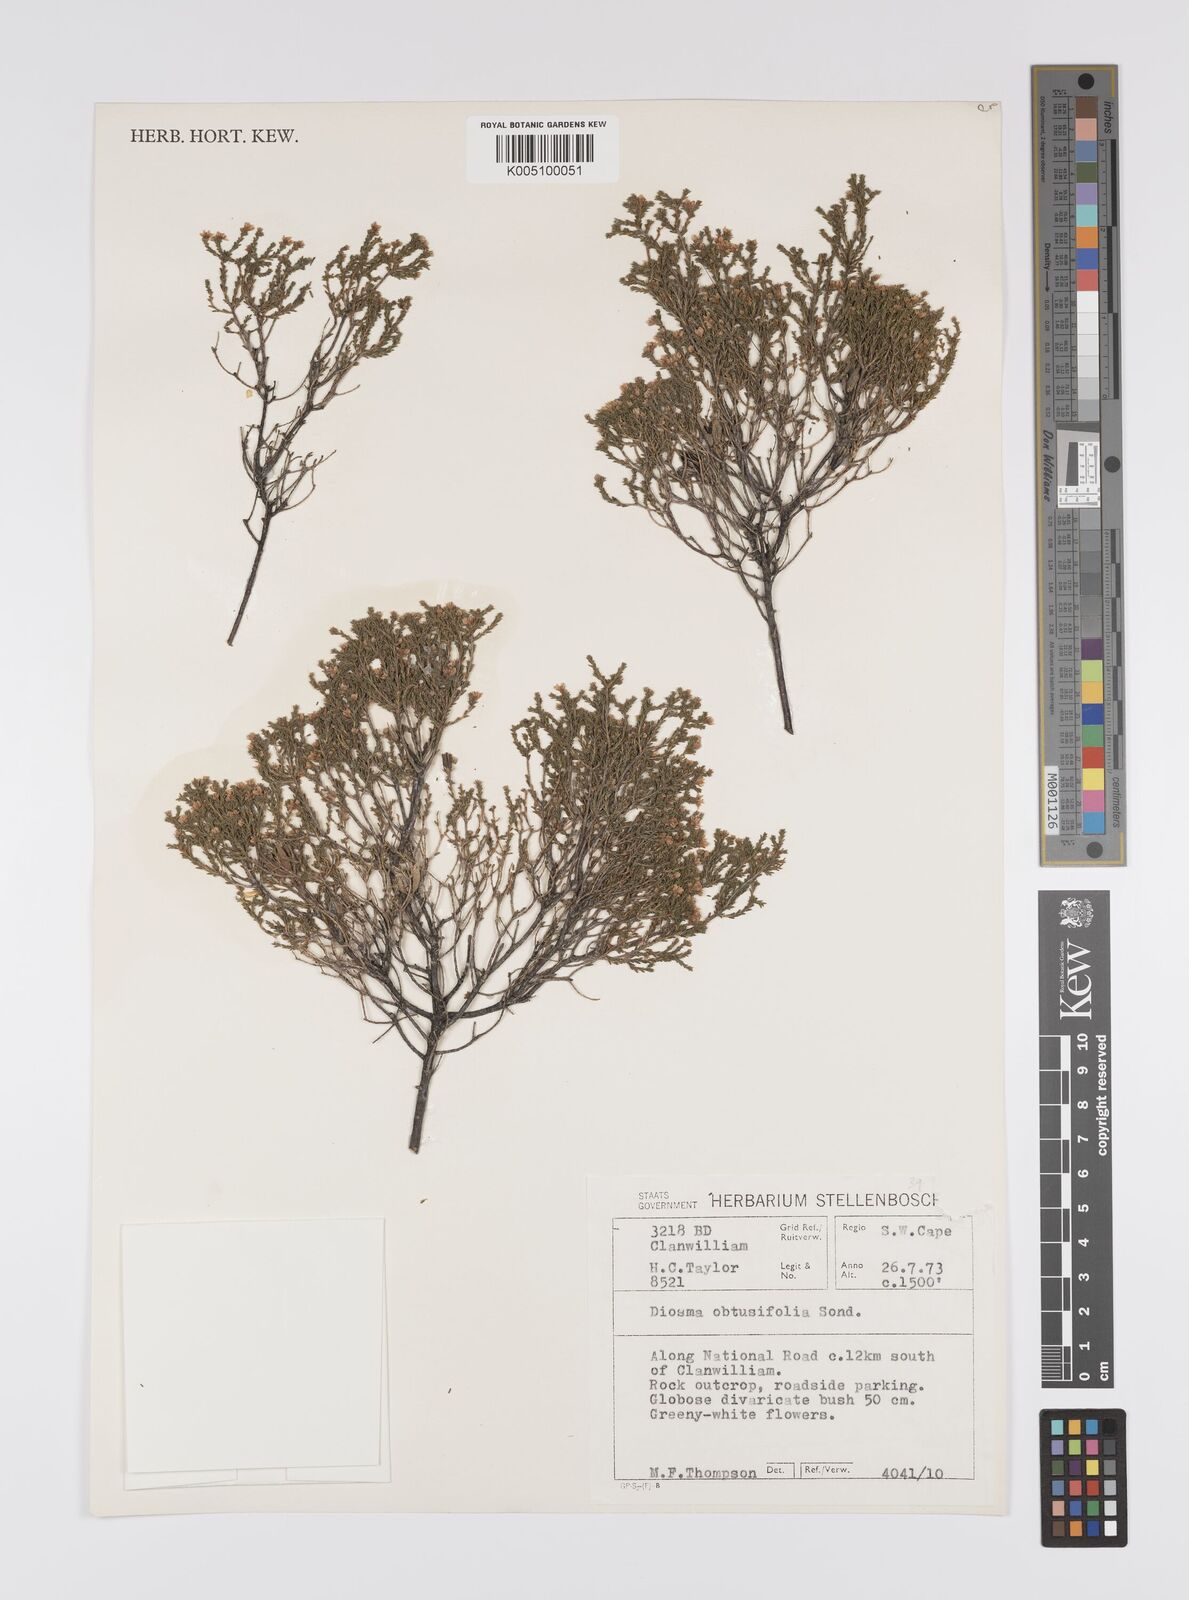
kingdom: Plantae
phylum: Tracheophyta
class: Magnoliopsida
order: Sapindales
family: Rutaceae
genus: Agathosma
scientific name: Agathosma virgata
